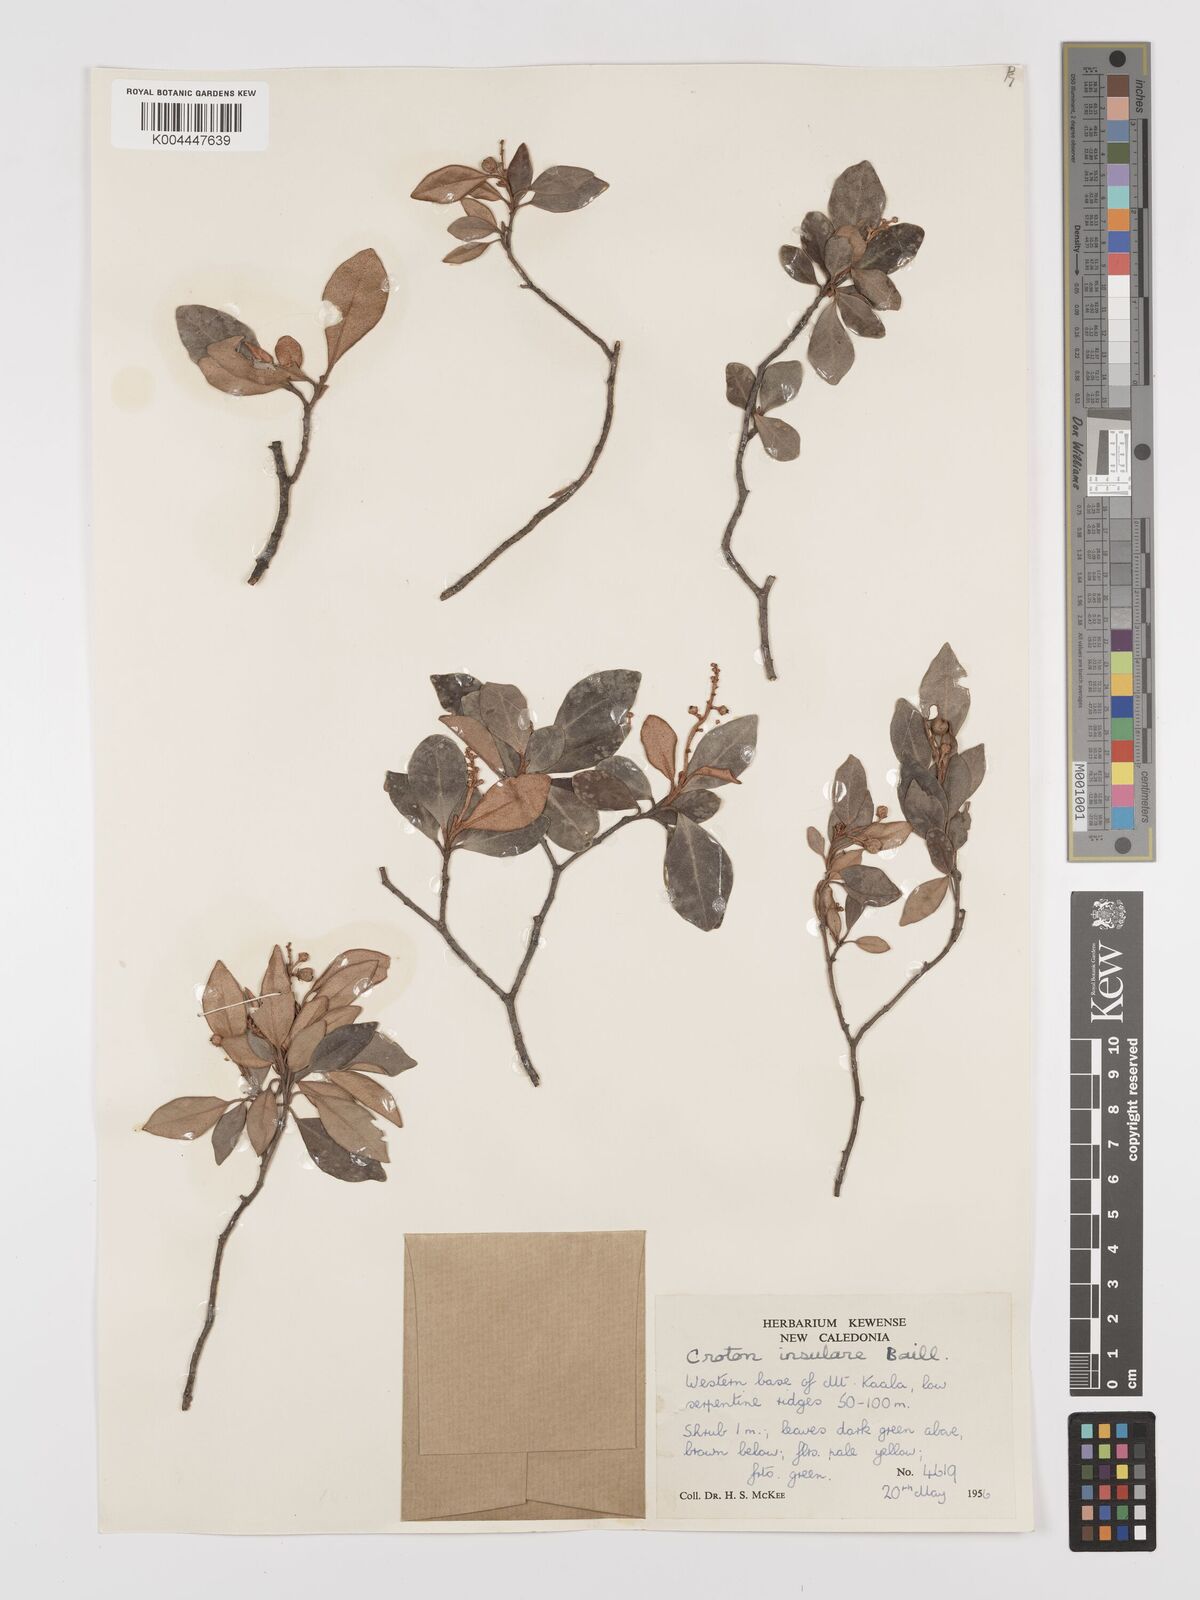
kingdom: Plantae
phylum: Tracheophyta
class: Magnoliopsida
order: Malpighiales
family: Euphorbiaceae
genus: Croton
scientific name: Croton insularis
